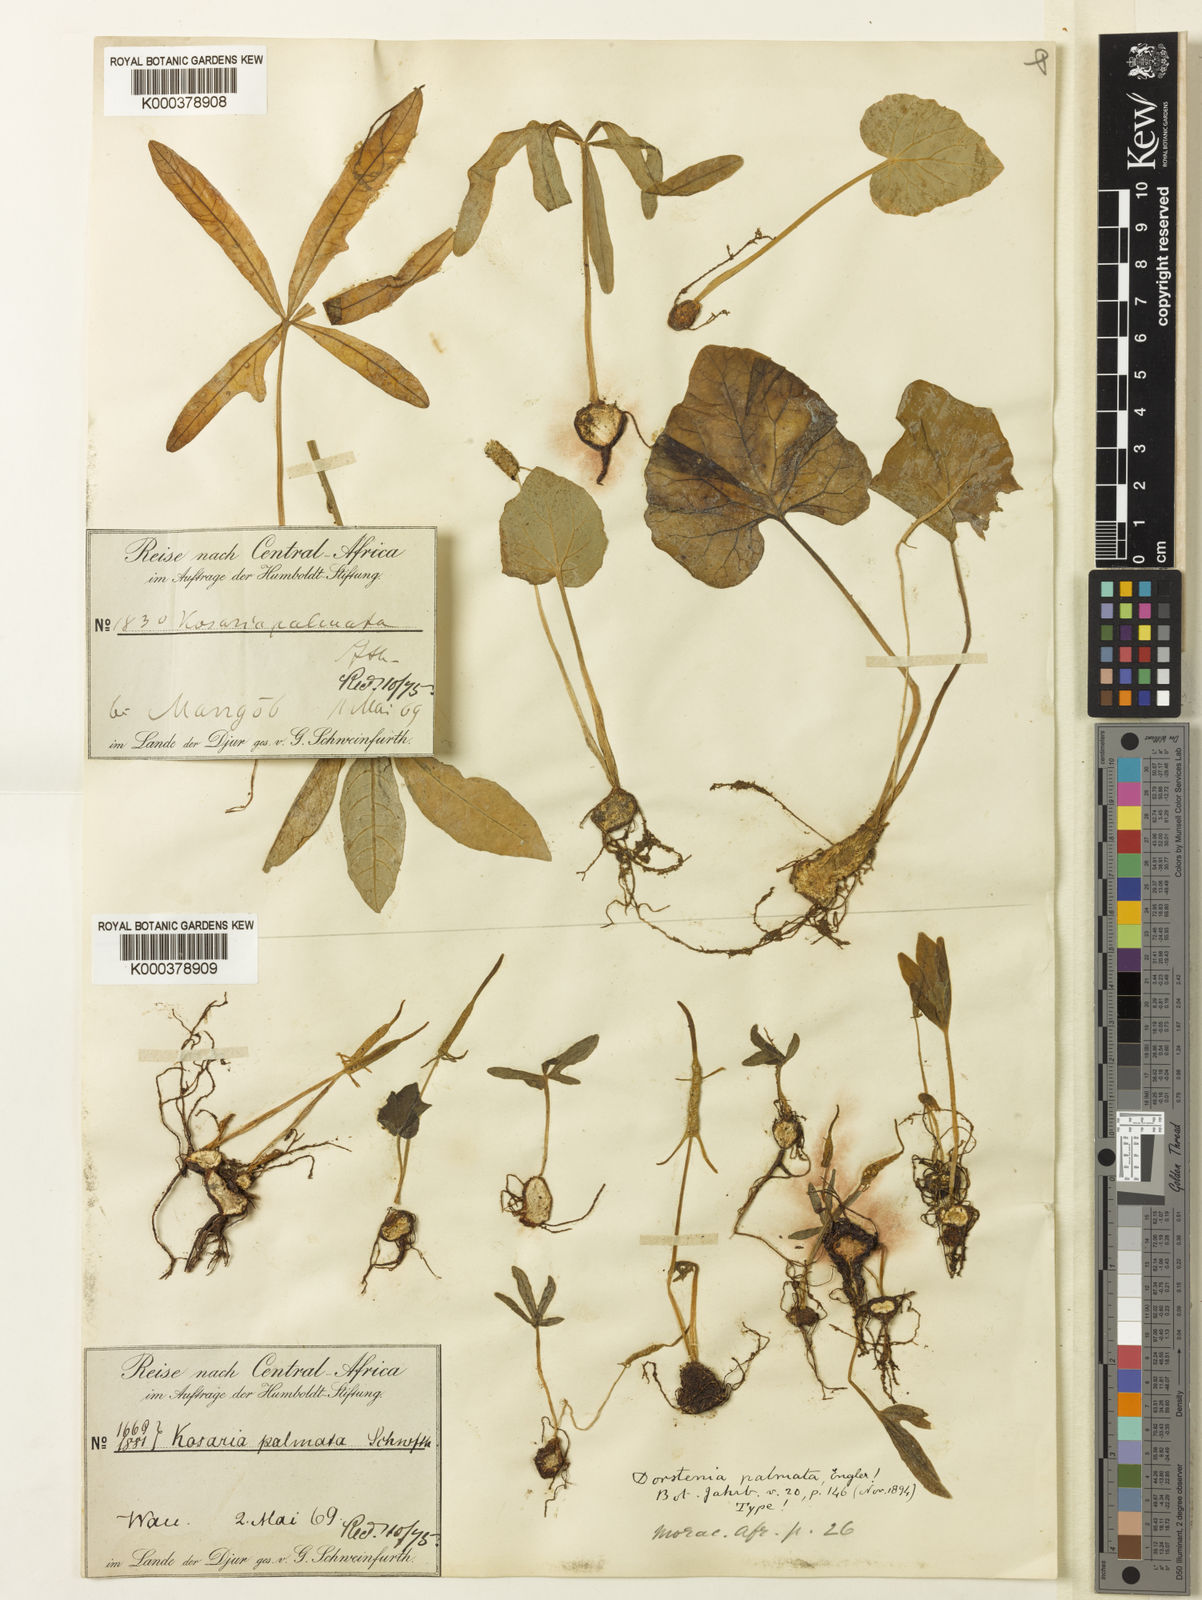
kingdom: Plantae
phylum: Tracheophyta
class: Magnoliopsida
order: Rosales
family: Moraceae
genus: Dorstenia
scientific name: Dorstenia barnimiana
